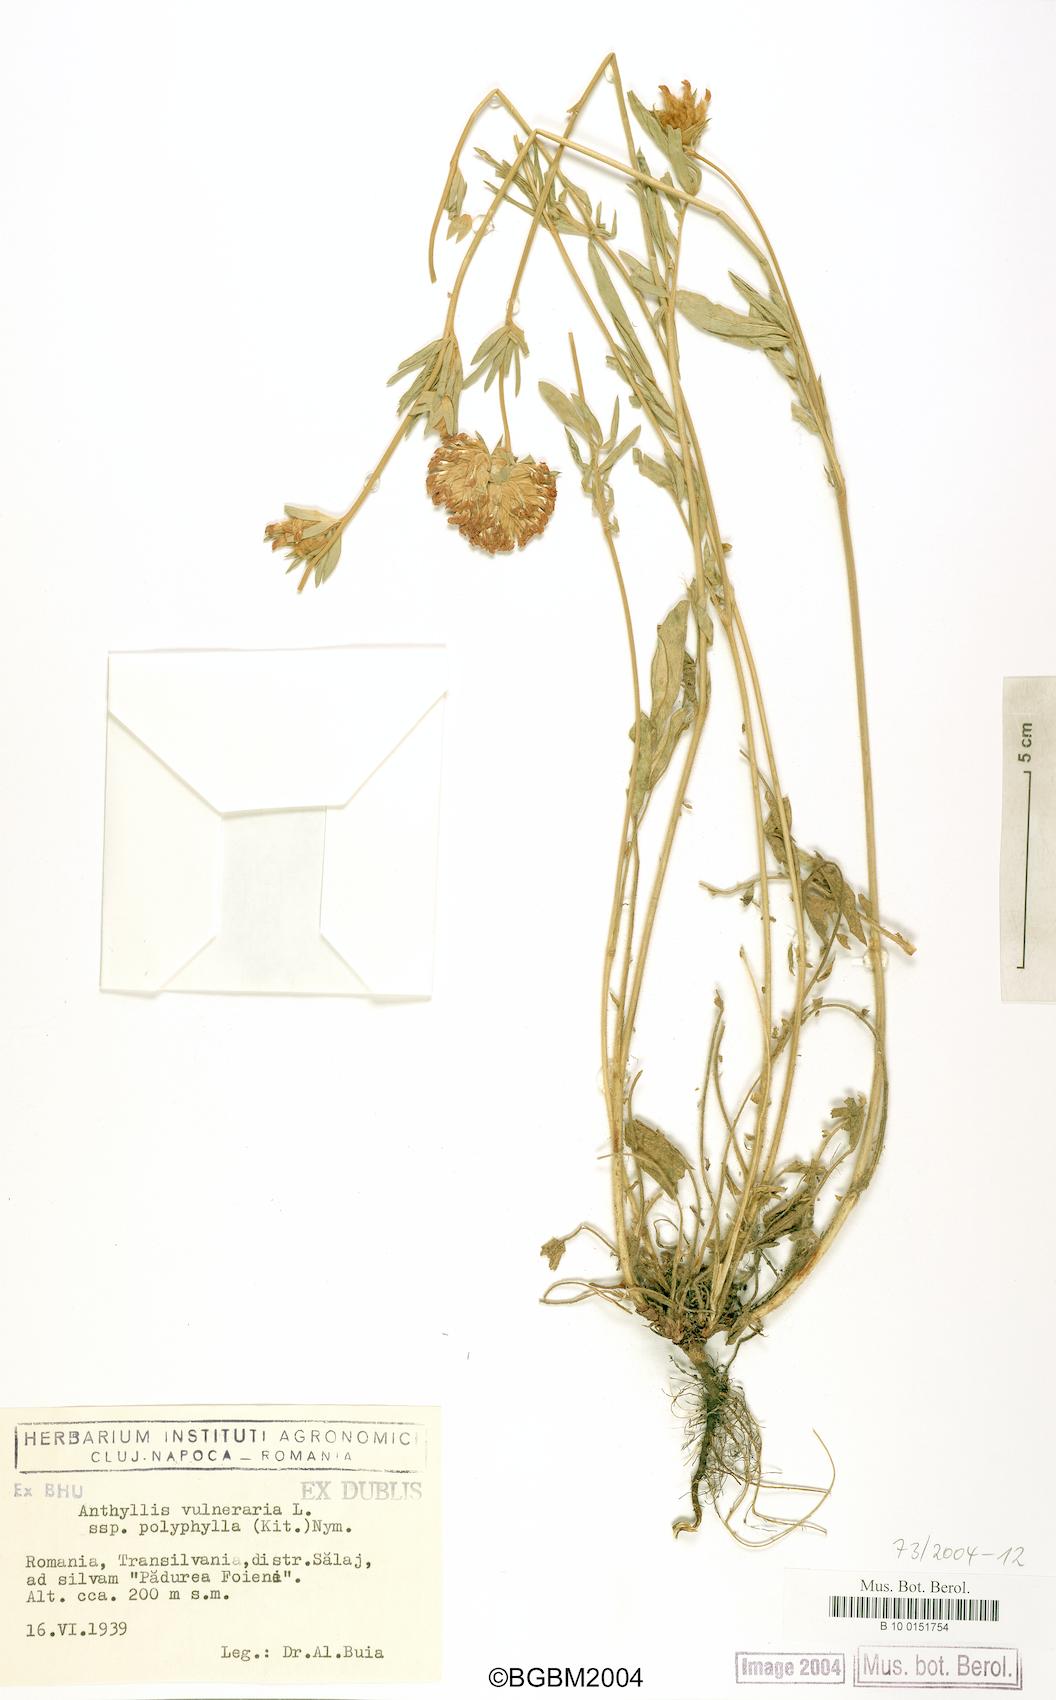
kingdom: Plantae
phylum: Tracheophyta
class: Magnoliopsida
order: Fabales
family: Fabaceae
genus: Anthyllis
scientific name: Anthyllis vulneraria
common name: Kidney vetch
